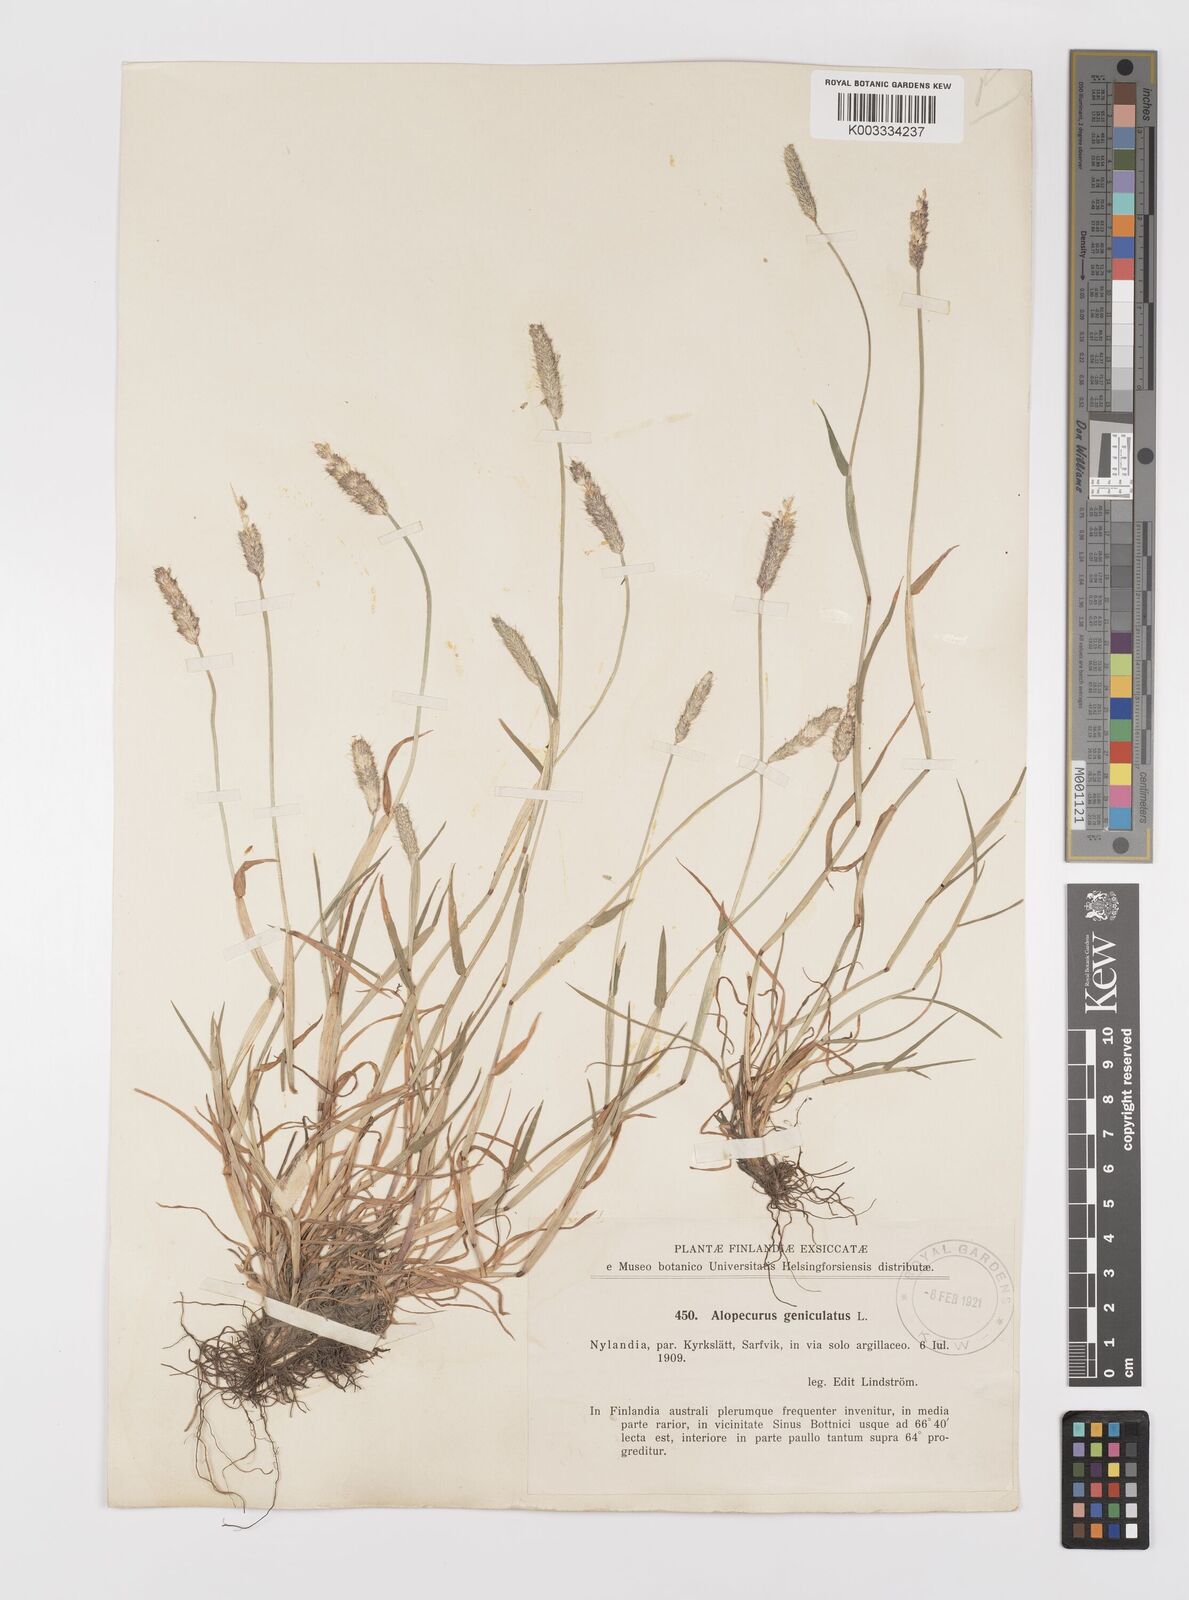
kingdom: Plantae
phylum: Tracheophyta
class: Liliopsida
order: Poales
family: Poaceae
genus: Alopecurus
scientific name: Alopecurus geniculatus
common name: Water foxtail
